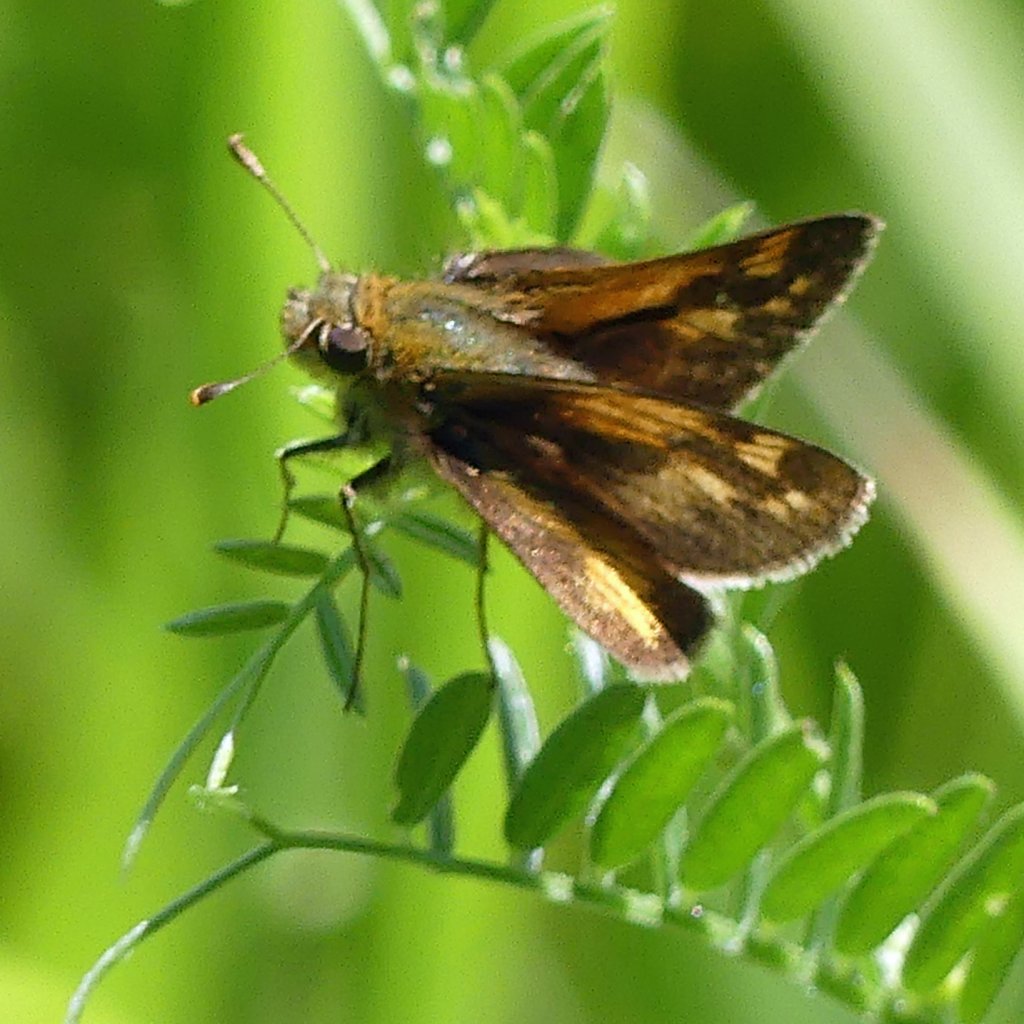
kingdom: Animalia
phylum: Arthropoda
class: Insecta
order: Lepidoptera
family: Hesperiidae
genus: Polites
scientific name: Polites coras
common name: Peck's Skipper
